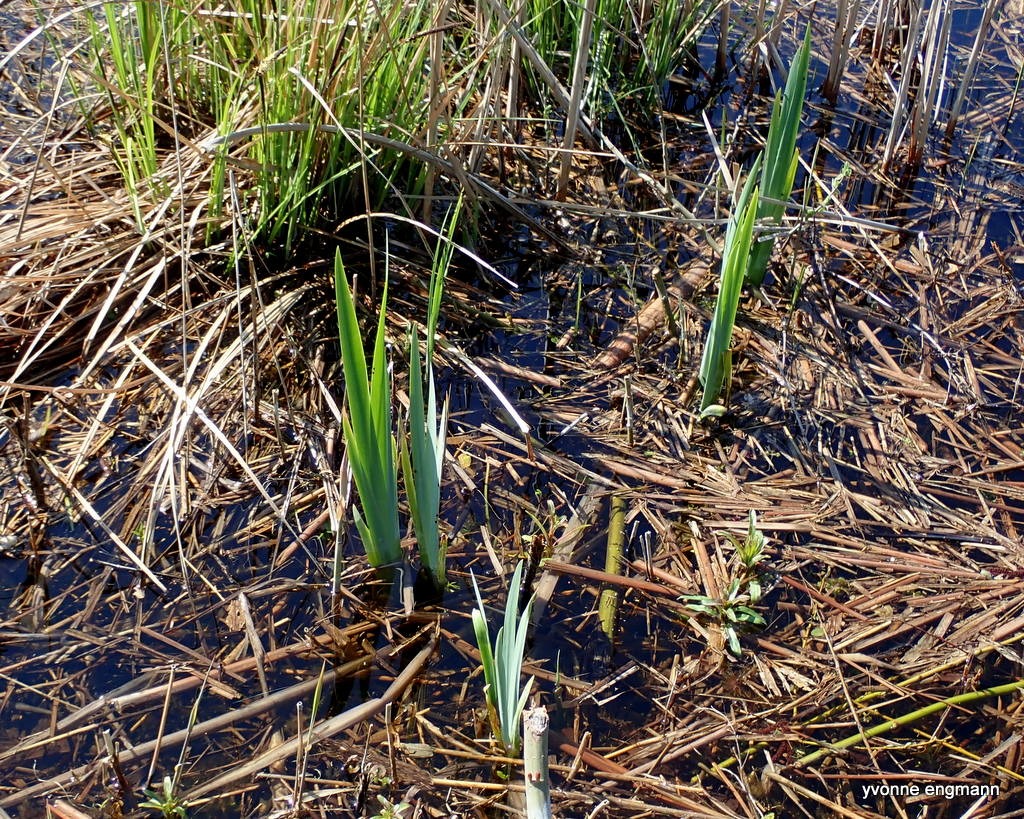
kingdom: Plantae
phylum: Tracheophyta
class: Liliopsida
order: Asparagales
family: Iridaceae
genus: Iris
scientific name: Iris pseudacorus
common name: Gul iris
